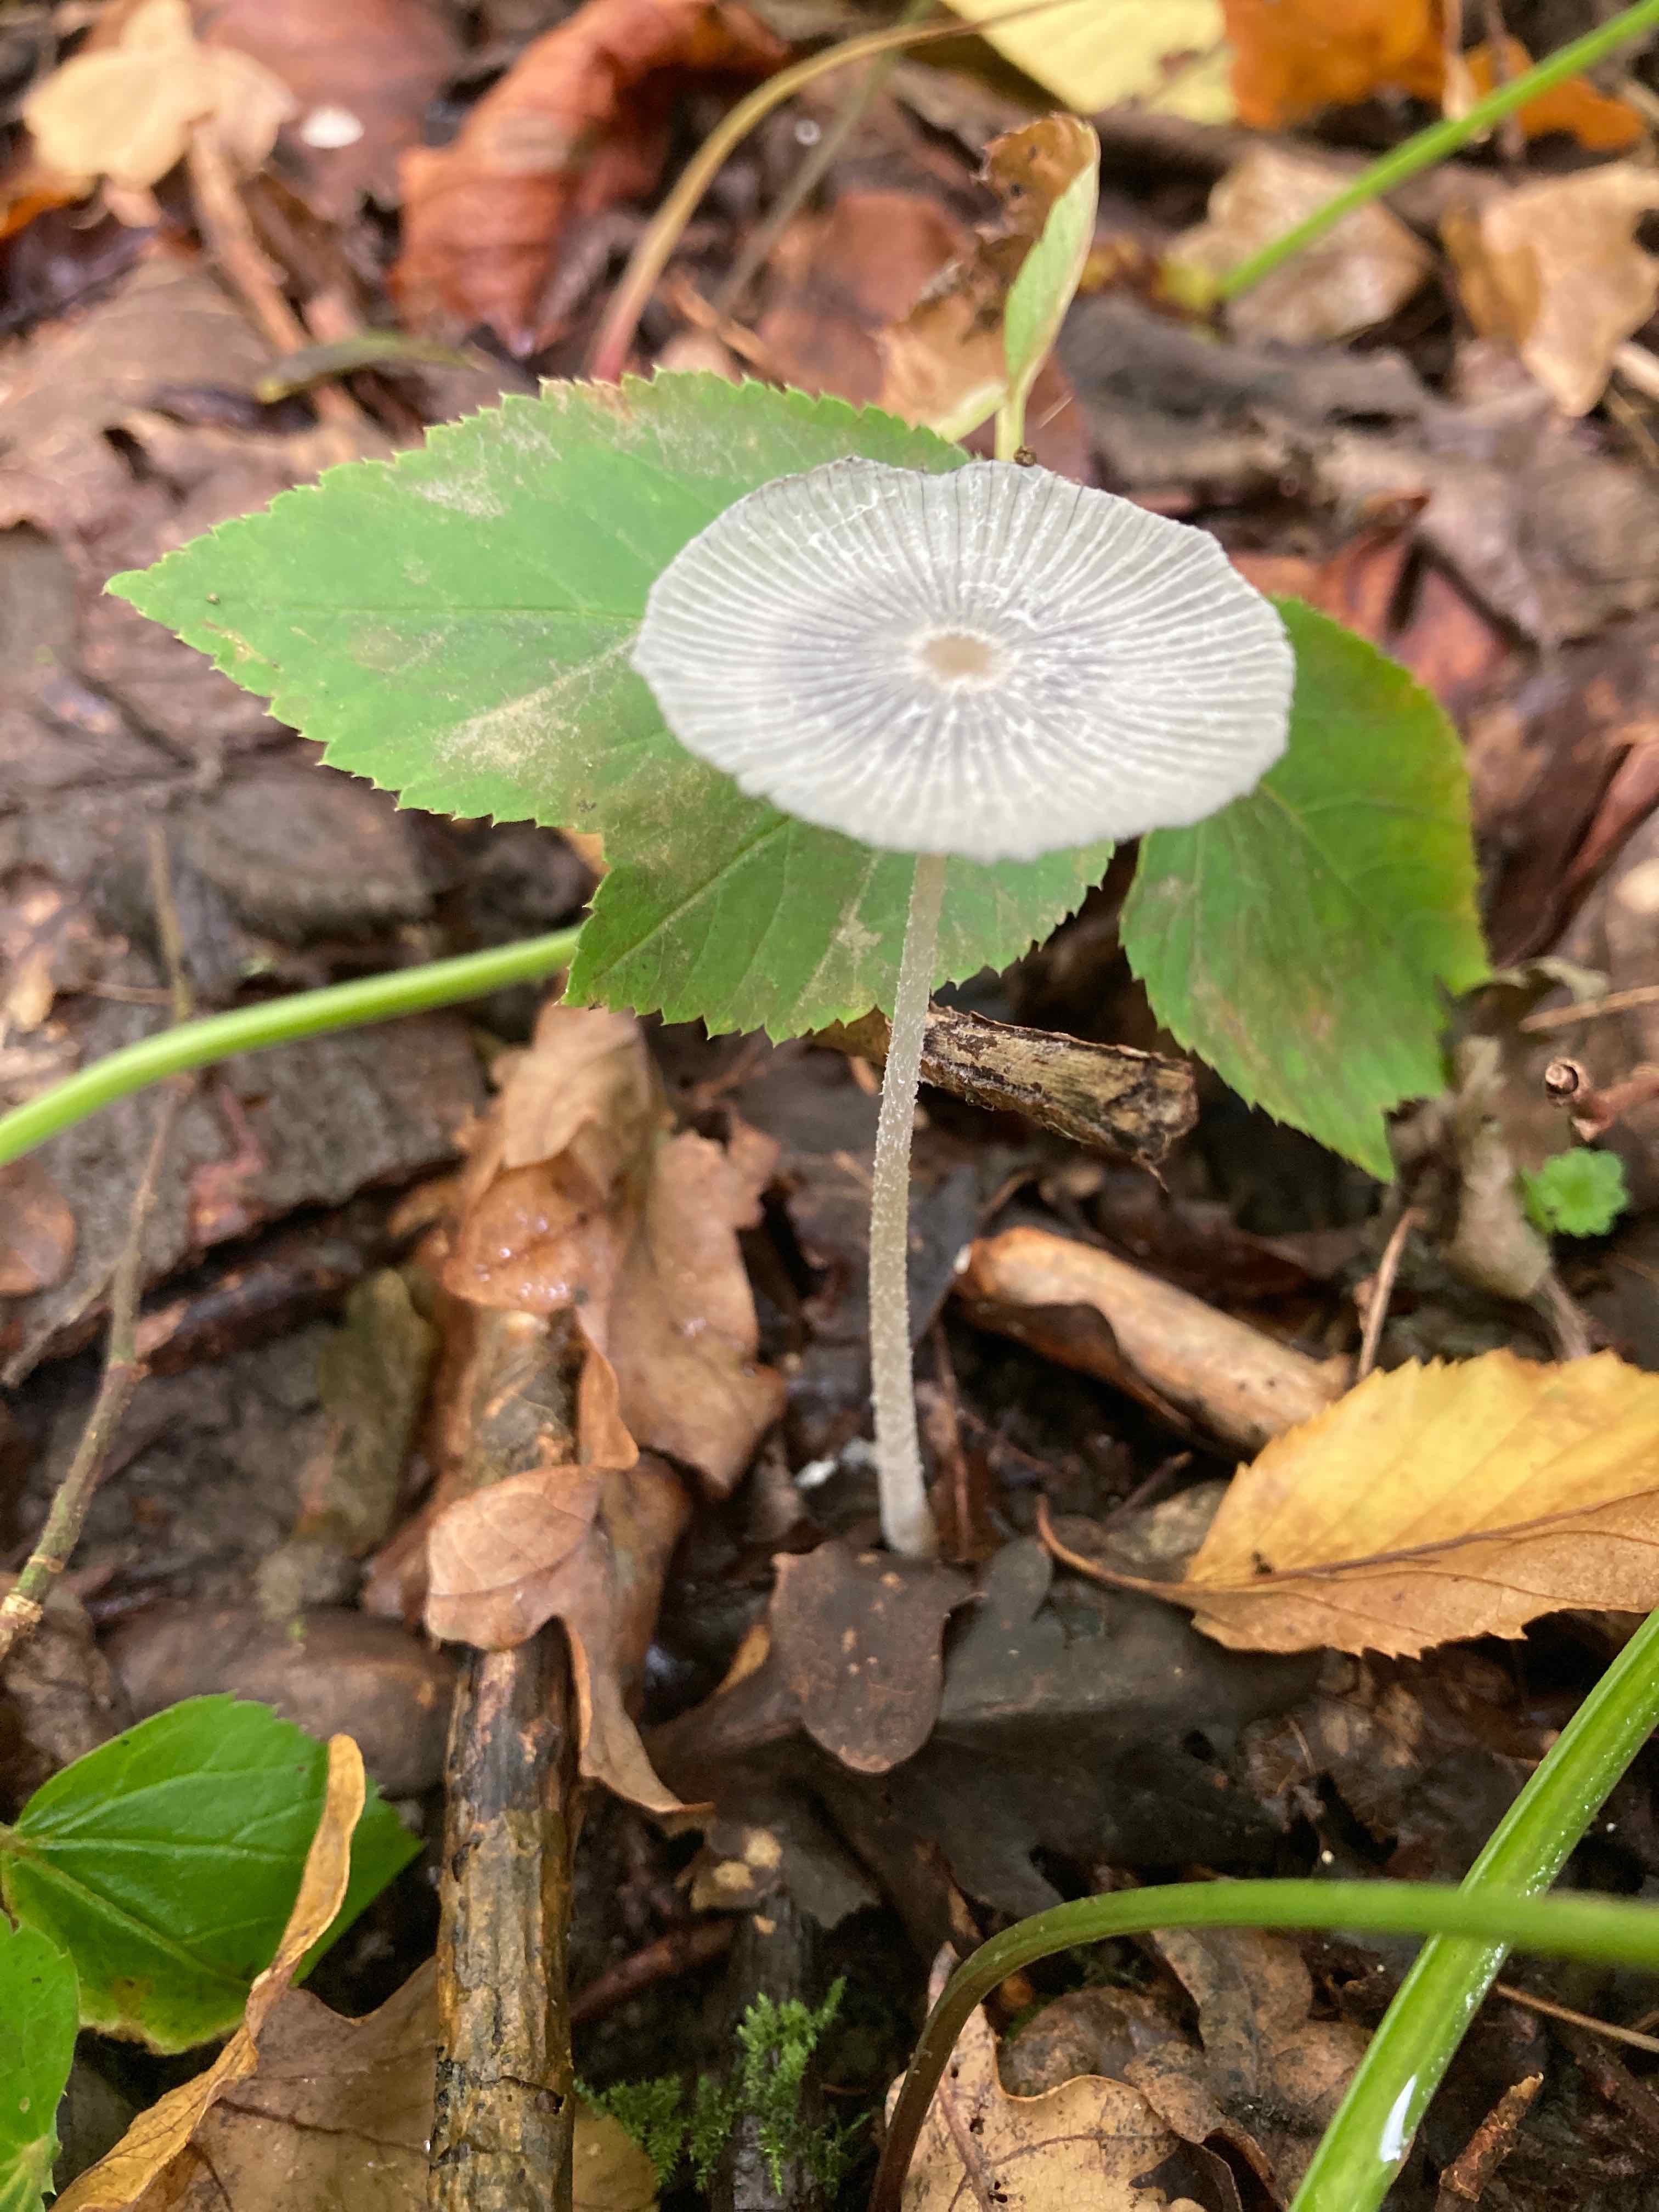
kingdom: Fungi
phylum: Basidiomycota
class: Agaricomycetes
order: Agaricales
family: Psathyrellaceae
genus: Coprinopsis
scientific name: Coprinopsis lagopus
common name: dunstokket blækhat
